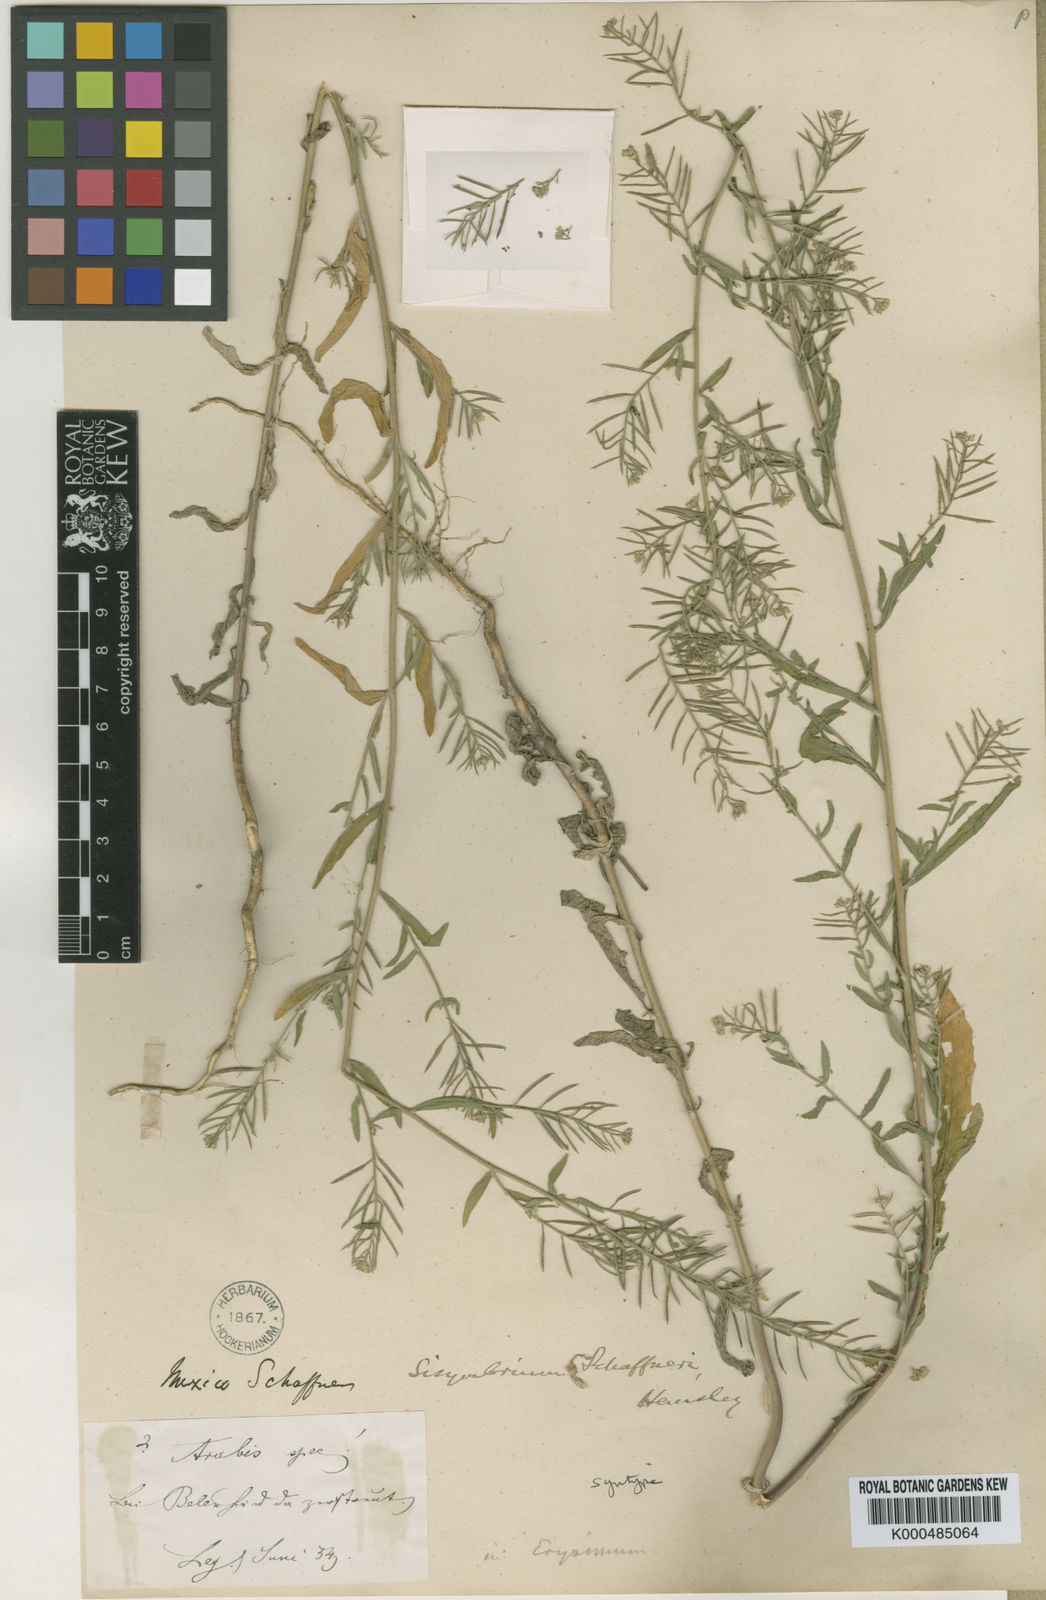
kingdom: Plantae
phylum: Tracheophyta
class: Magnoliopsida
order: Brassicales
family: Brassicaceae
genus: Halimolobos
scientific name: Halimolobos lasiolobus
